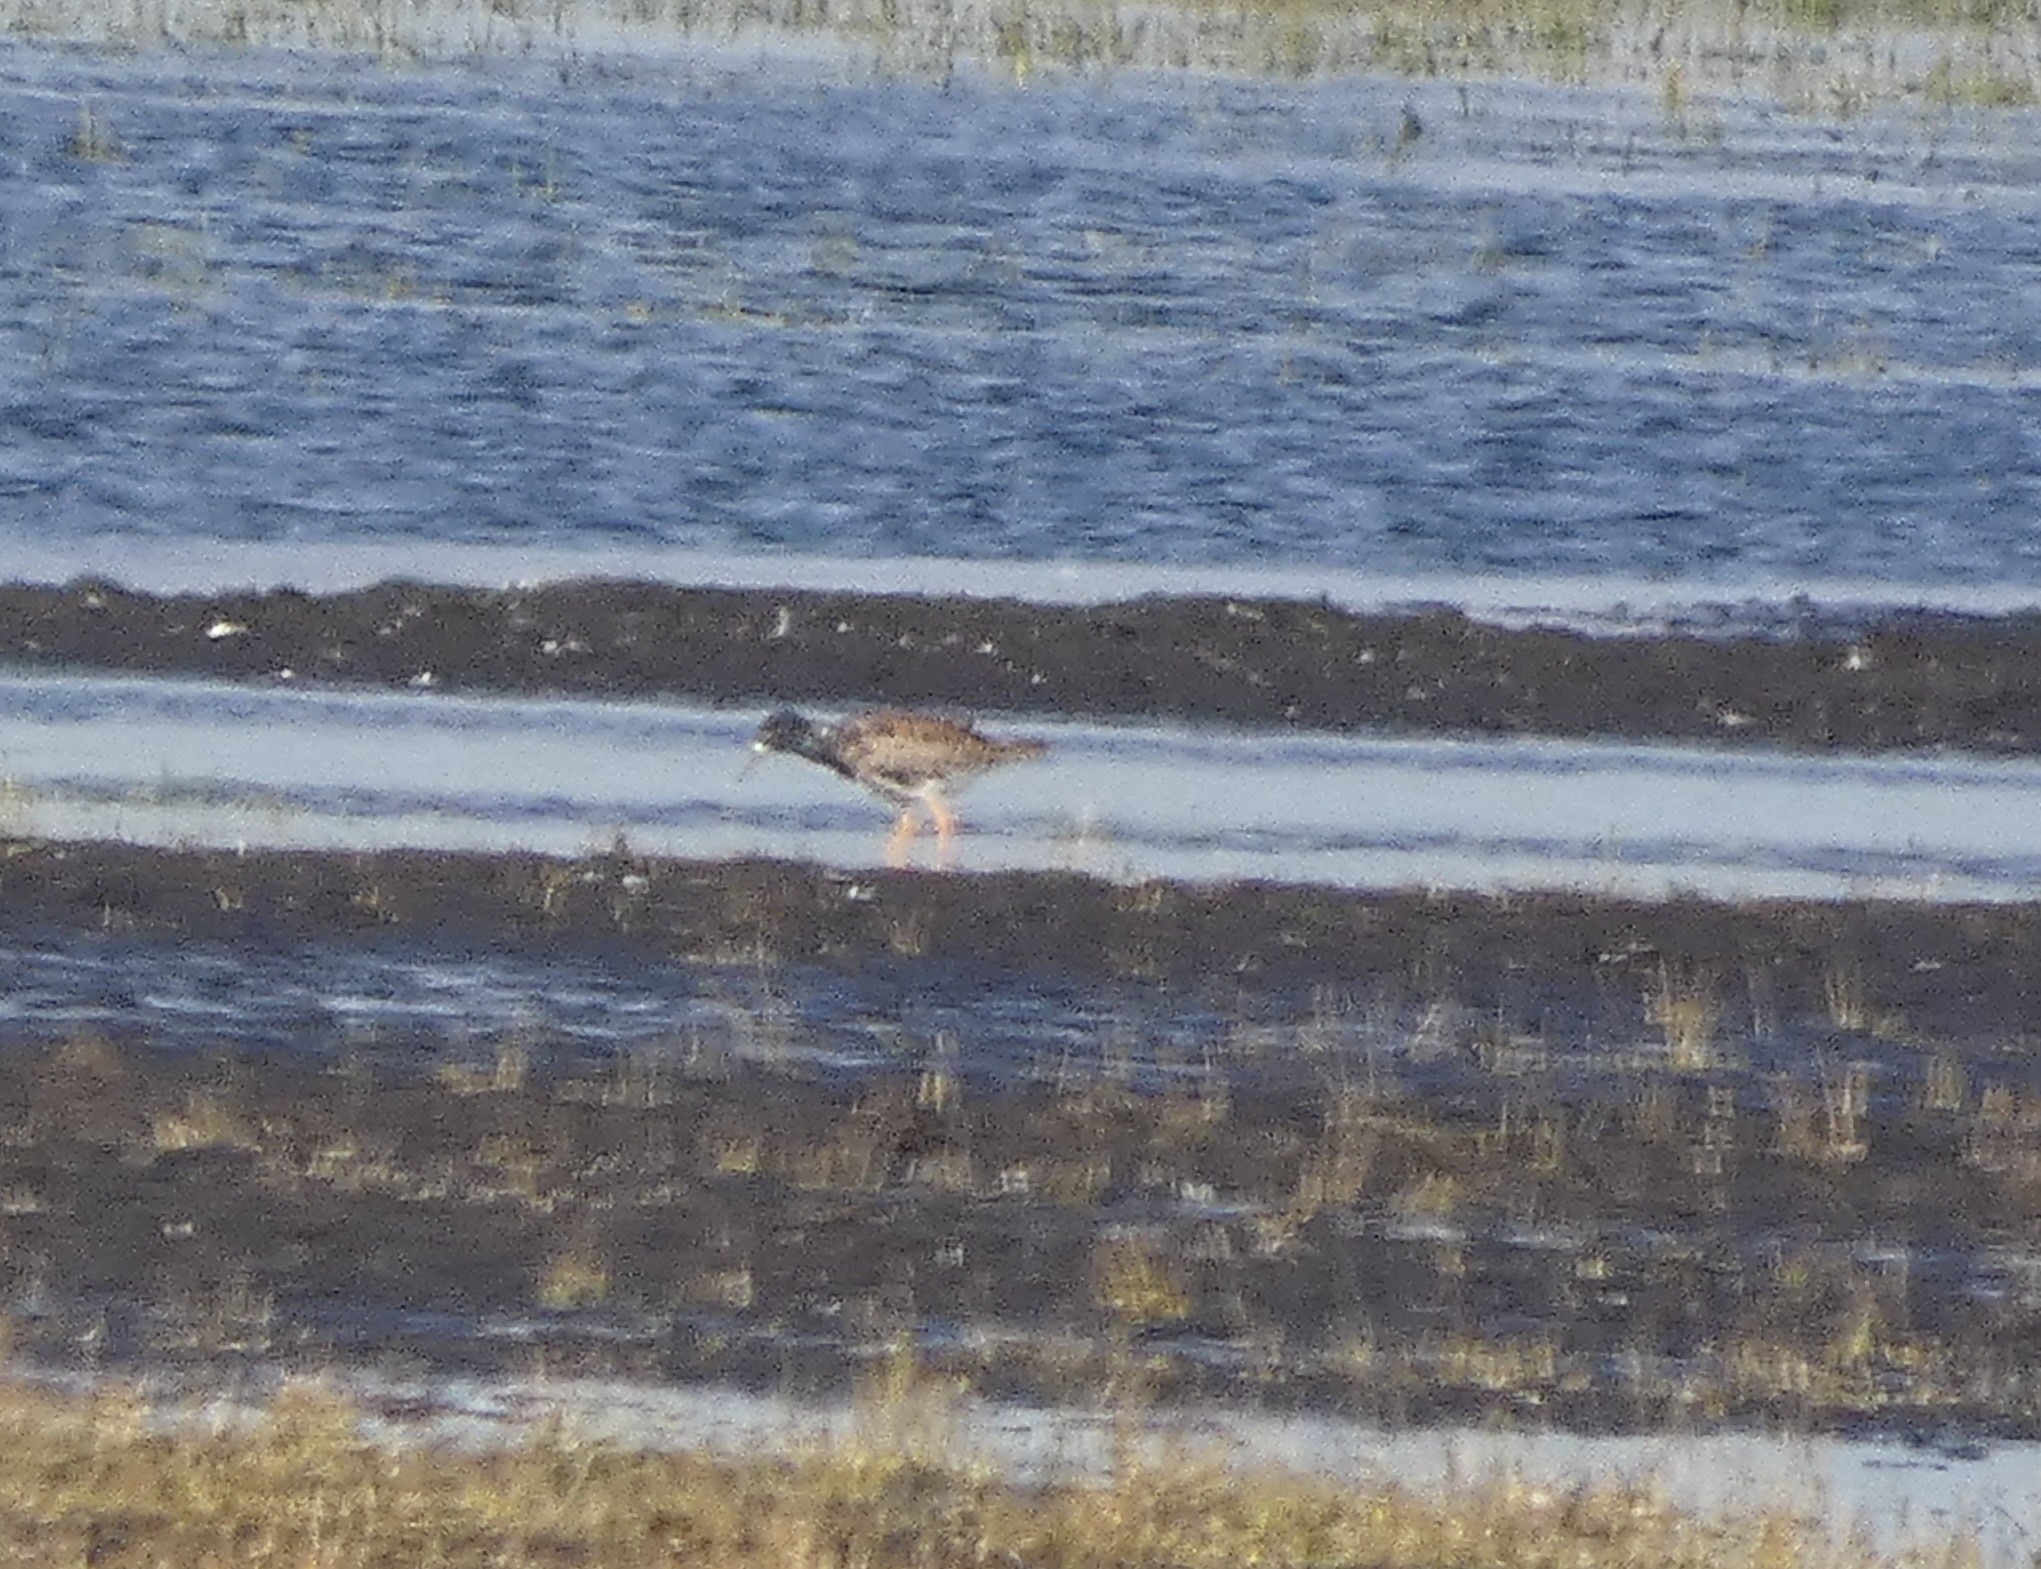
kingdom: Animalia
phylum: Chordata
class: Aves
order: Charadriiformes
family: Scolopacidae
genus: Calidris
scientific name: Calidris pugnax
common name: Brushane
